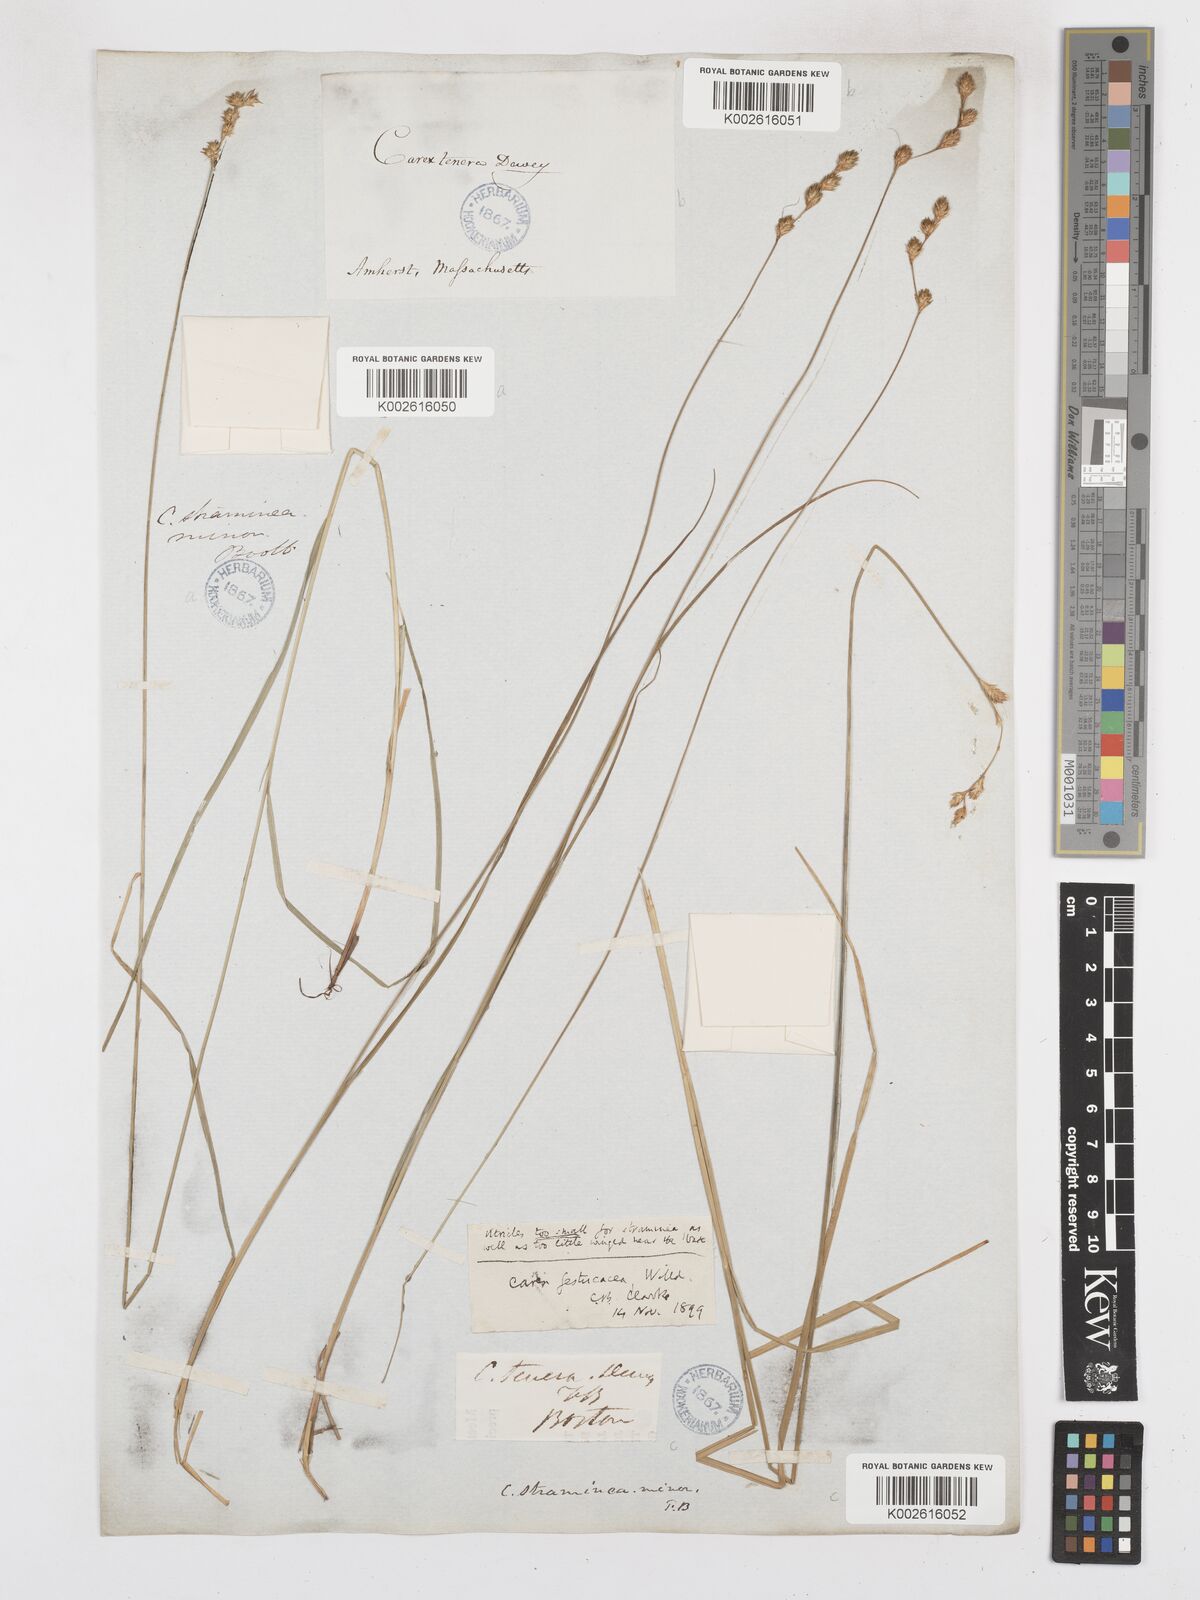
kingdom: Plantae
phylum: Tracheophyta
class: Liliopsida
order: Poales
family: Cyperaceae
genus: Carex
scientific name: Carex festucacea
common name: Fescue oval sedge
